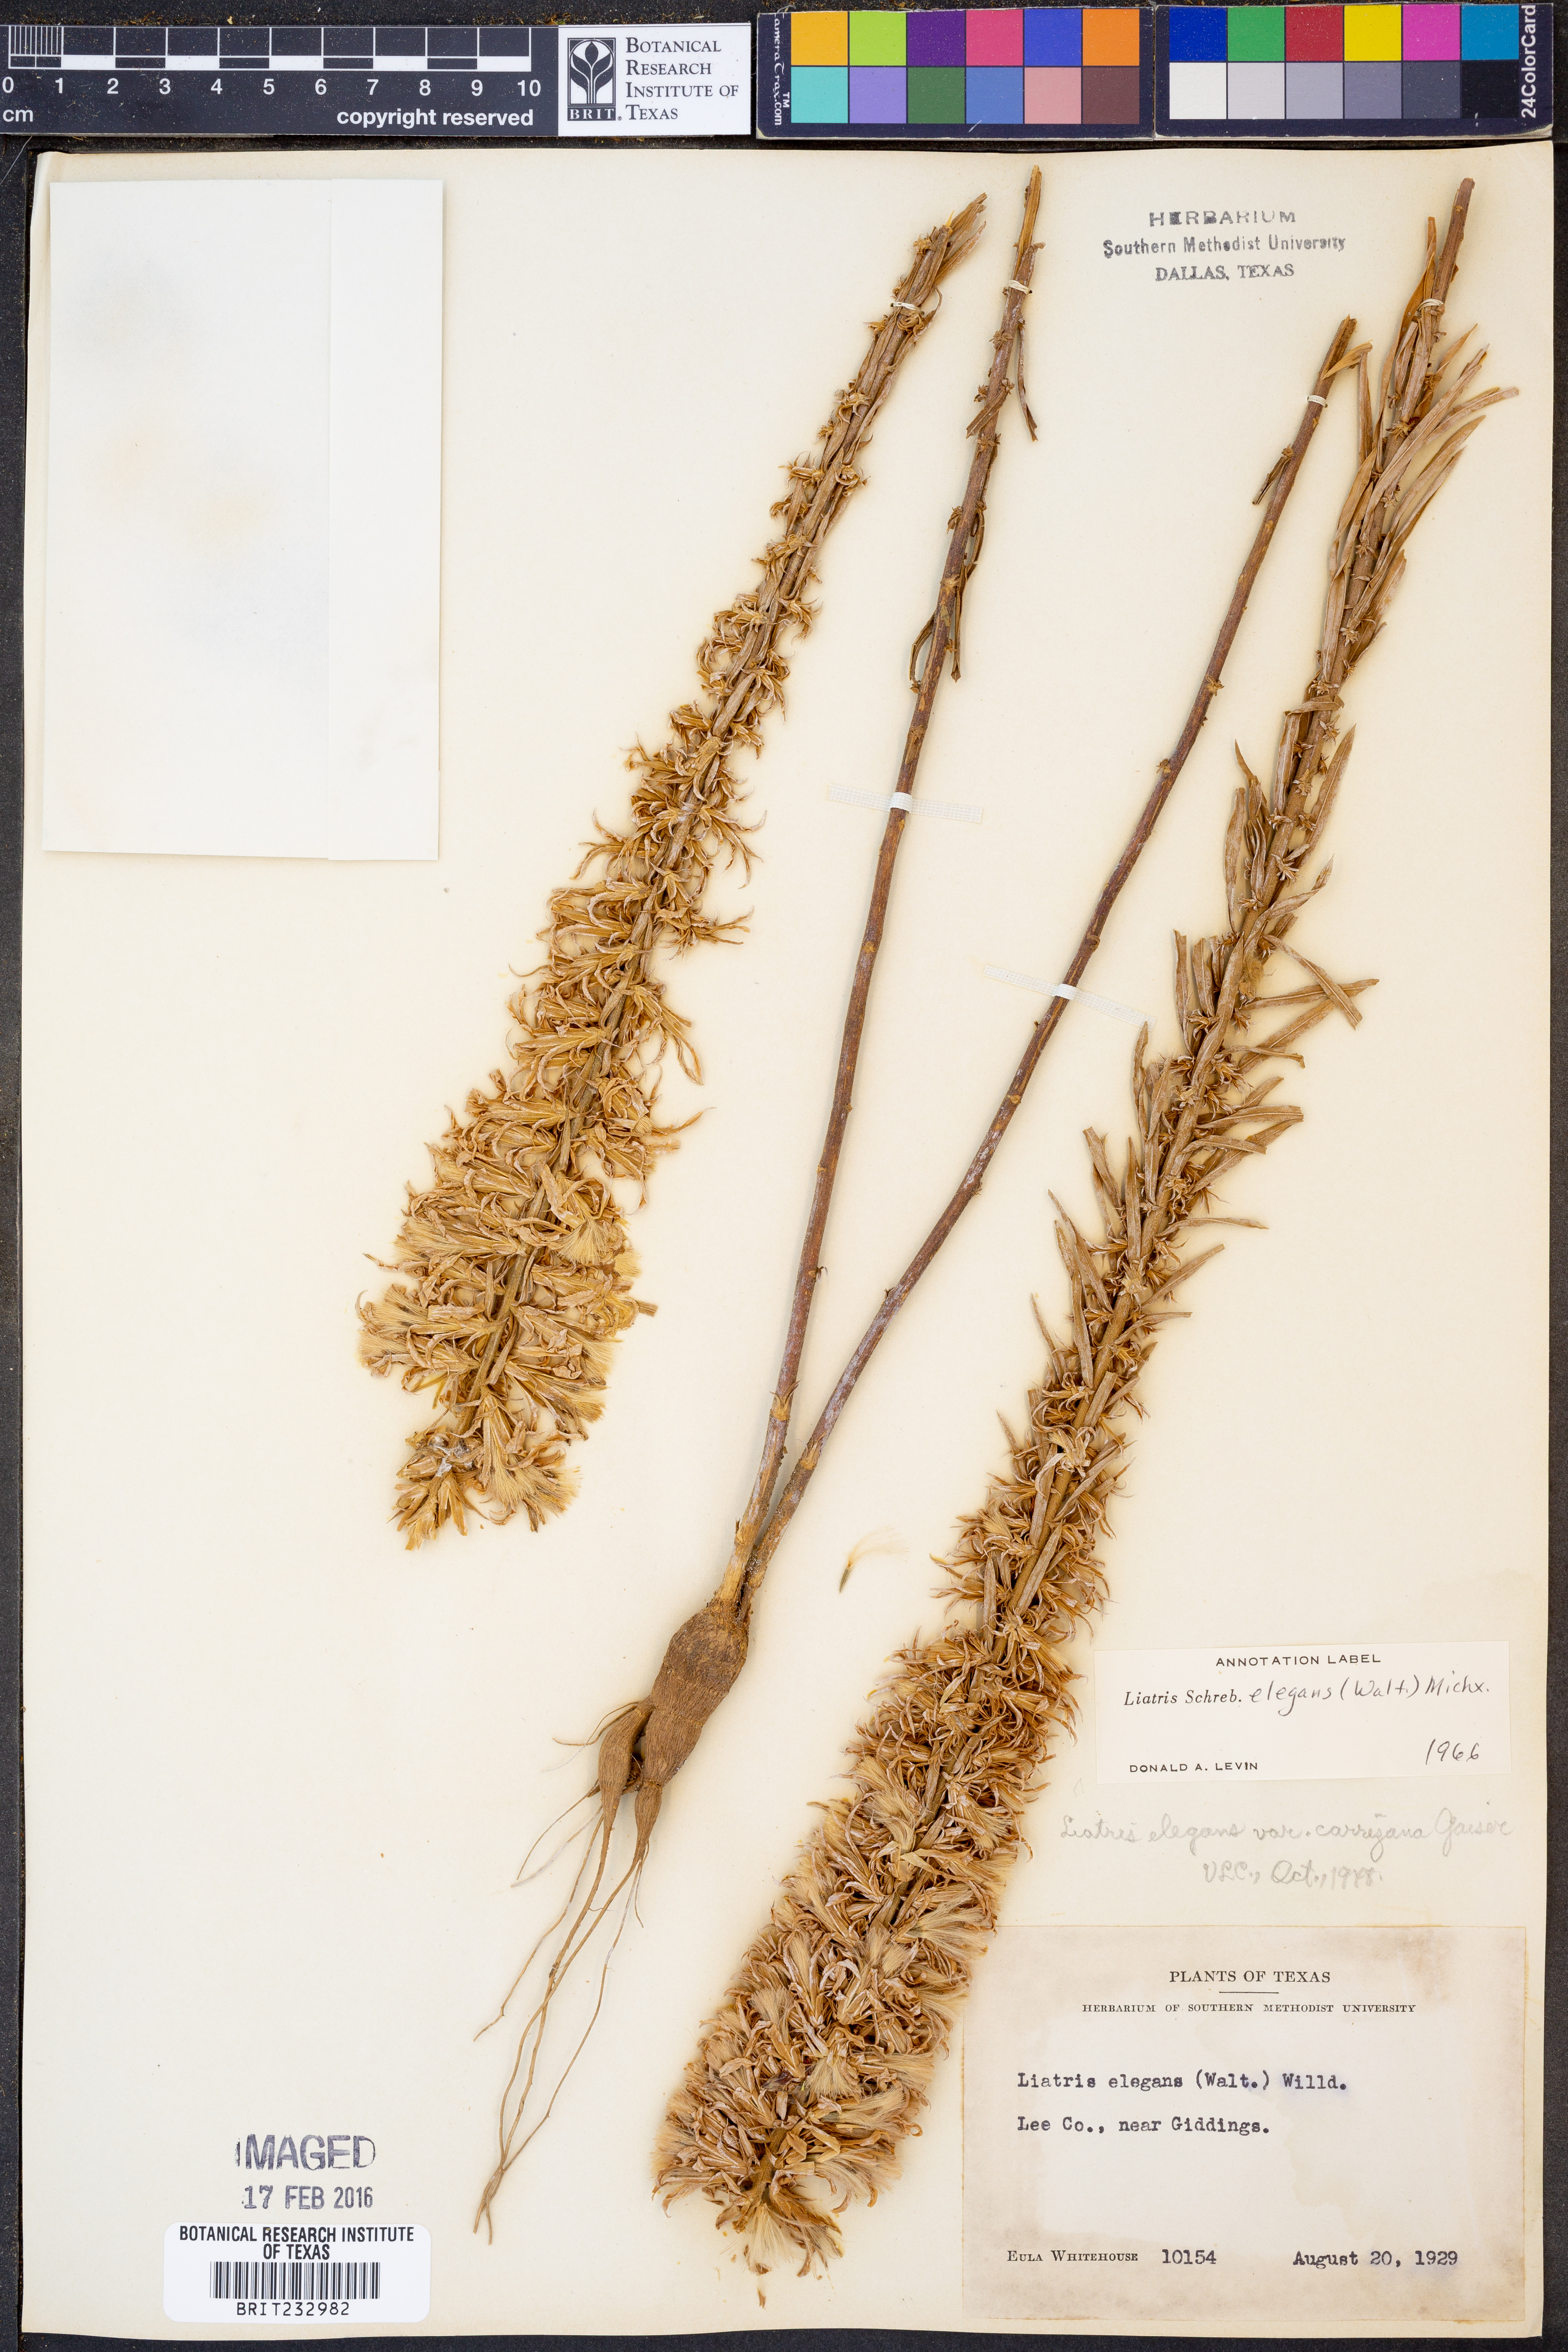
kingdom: Plantae
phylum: Tracheophyta
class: Magnoliopsida
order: Asterales
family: Asteraceae
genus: Liatris
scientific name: Liatris elegans
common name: Pinkscale gayfeather
